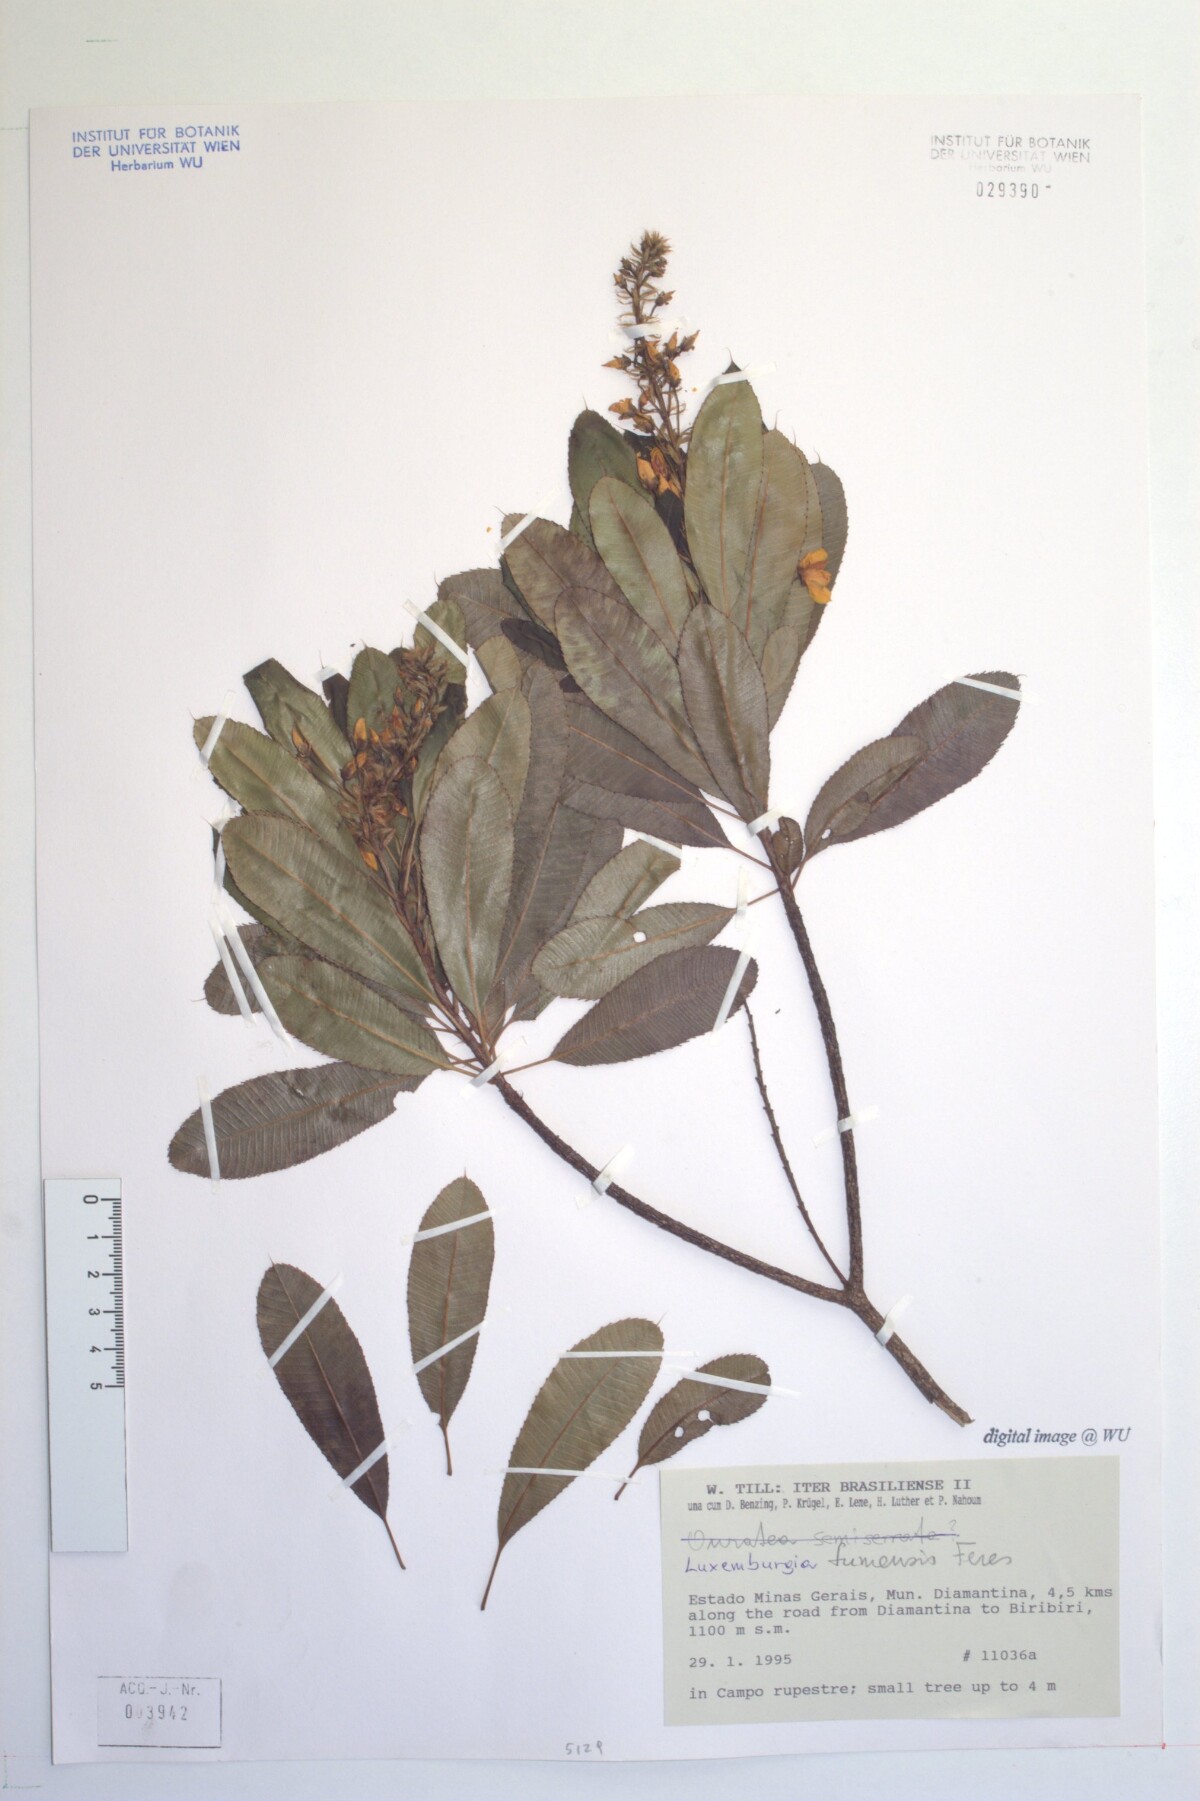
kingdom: Plantae
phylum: Tracheophyta
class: Magnoliopsida
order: Malpighiales
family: Ochnaceae
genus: Luxemburgia
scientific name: Luxemburgia polyandra
